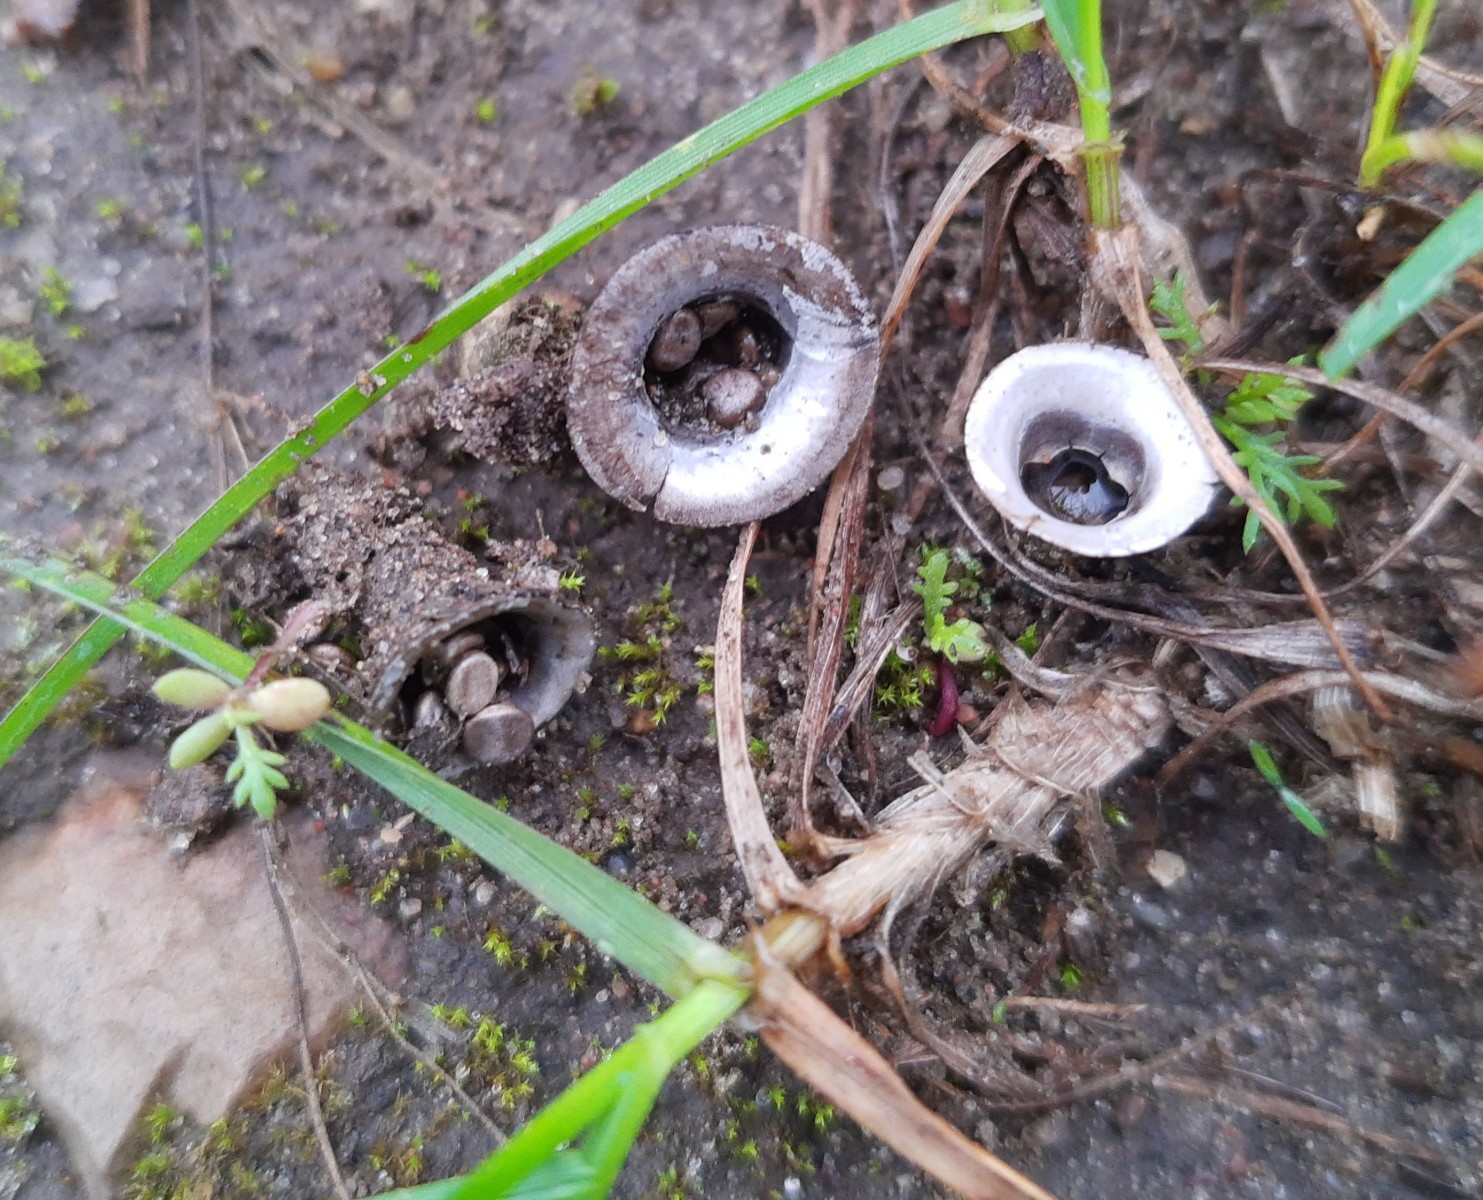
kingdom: Fungi
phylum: Basidiomycota
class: Agaricomycetes
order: Agaricales
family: Agaricaceae
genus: Cyathus
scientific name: Cyathus olla
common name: klokke-redesvamp
